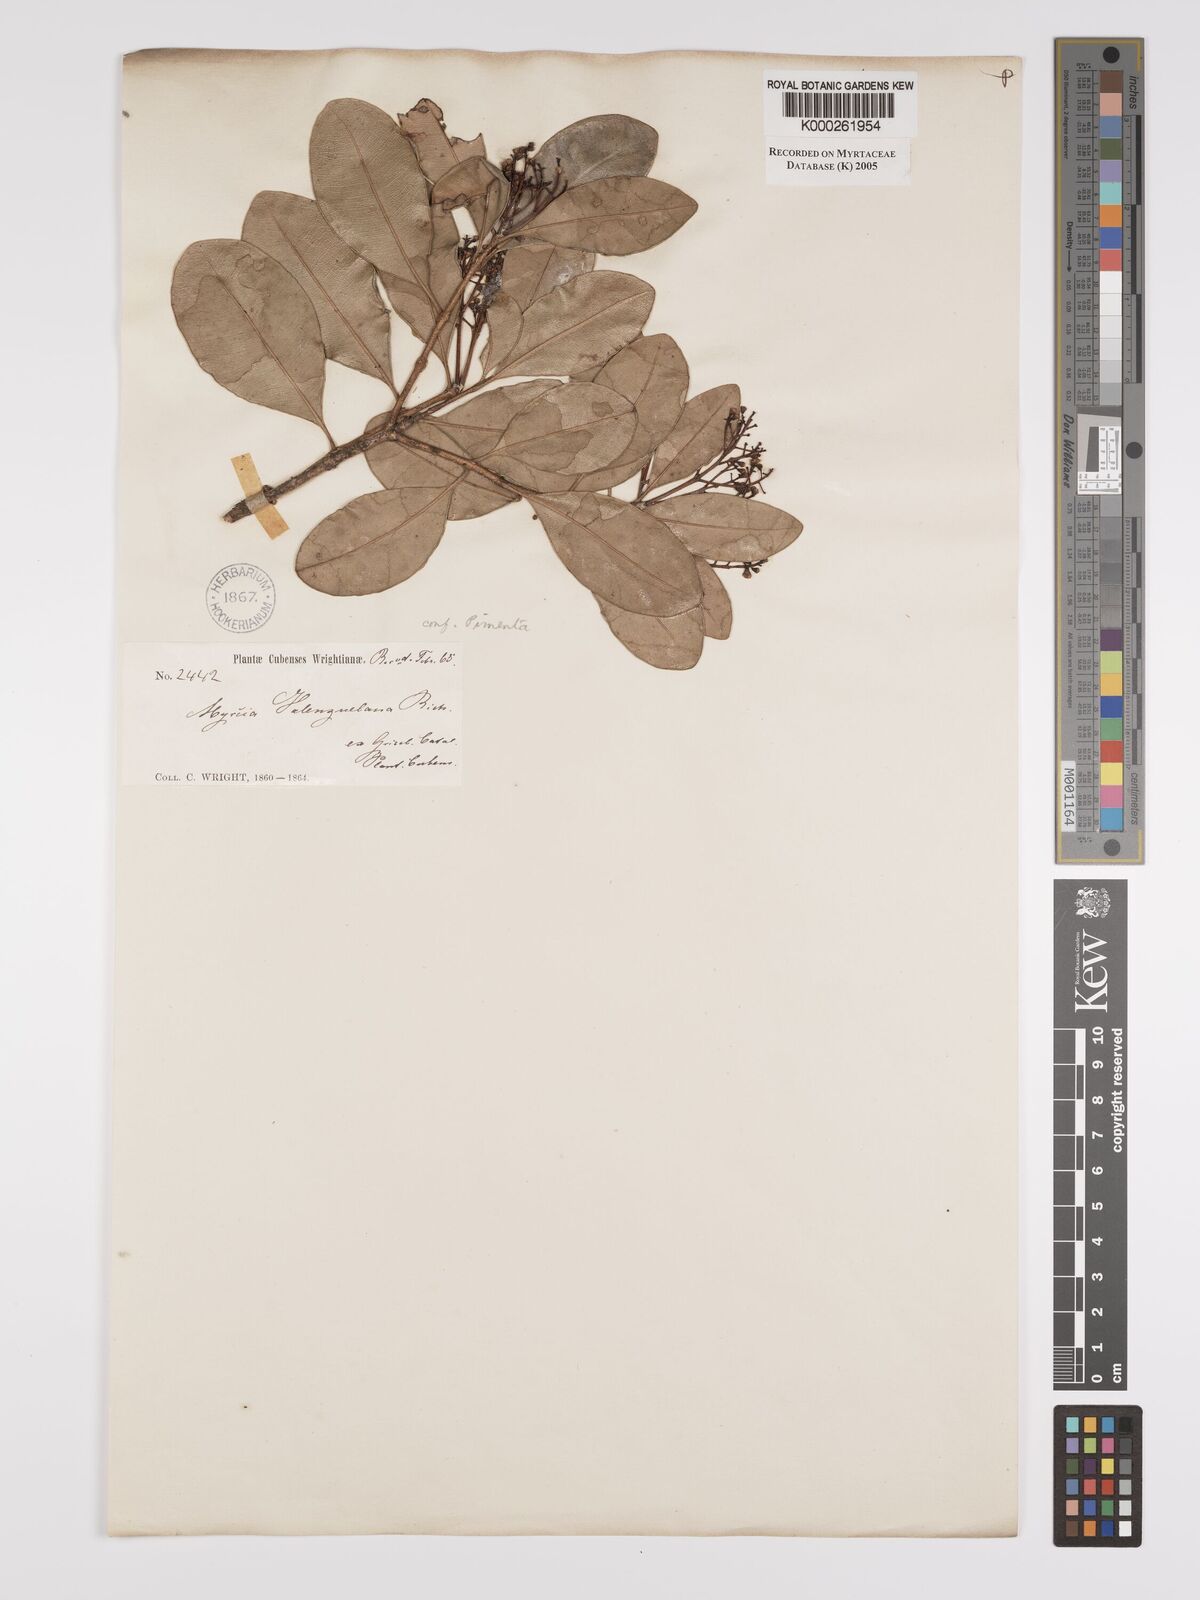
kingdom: Plantae
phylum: Tracheophyta
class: Magnoliopsida
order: Myrtales
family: Myrtaceae
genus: Myrcia
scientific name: Myrcia valenzuelana
